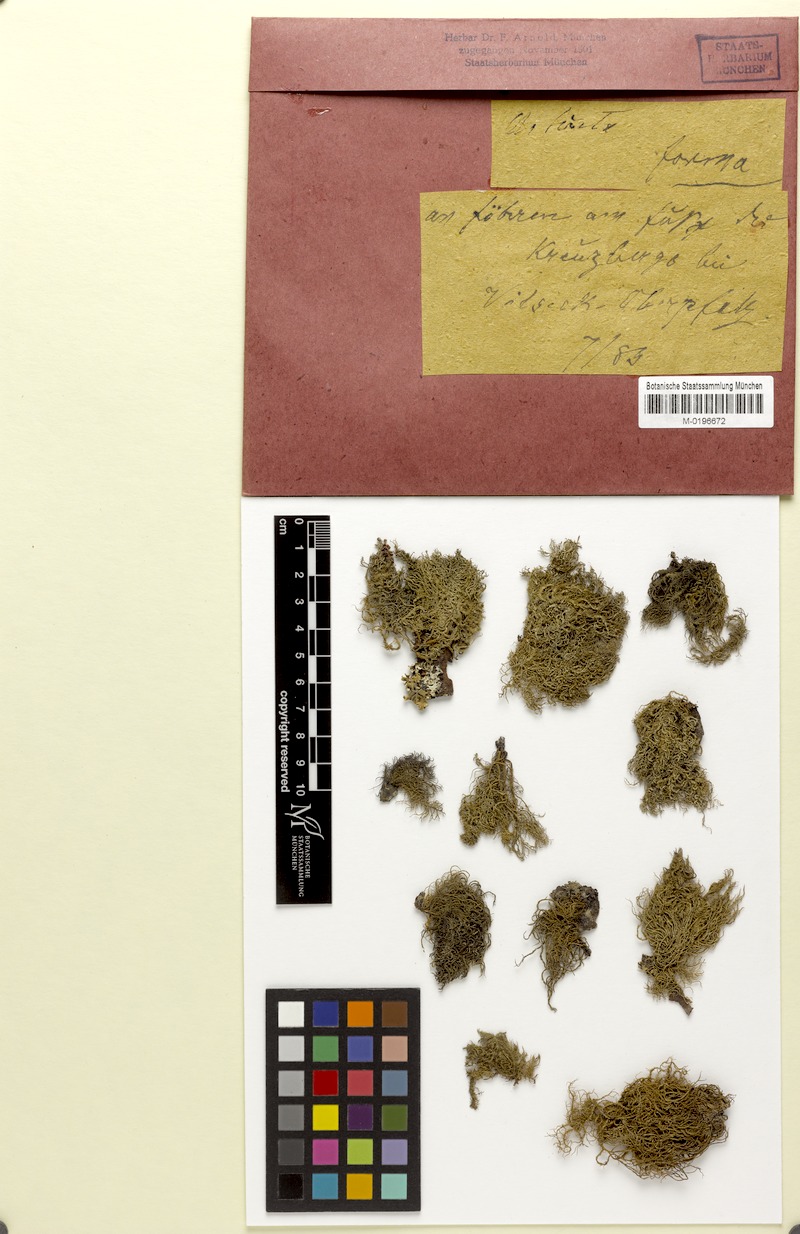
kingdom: Fungi
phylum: Ascomycota
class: Lecanoromycetes
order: Lecanorales
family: Parmeliaceae
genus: Usnea
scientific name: Usnea hirta
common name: Bristly beard lichen
